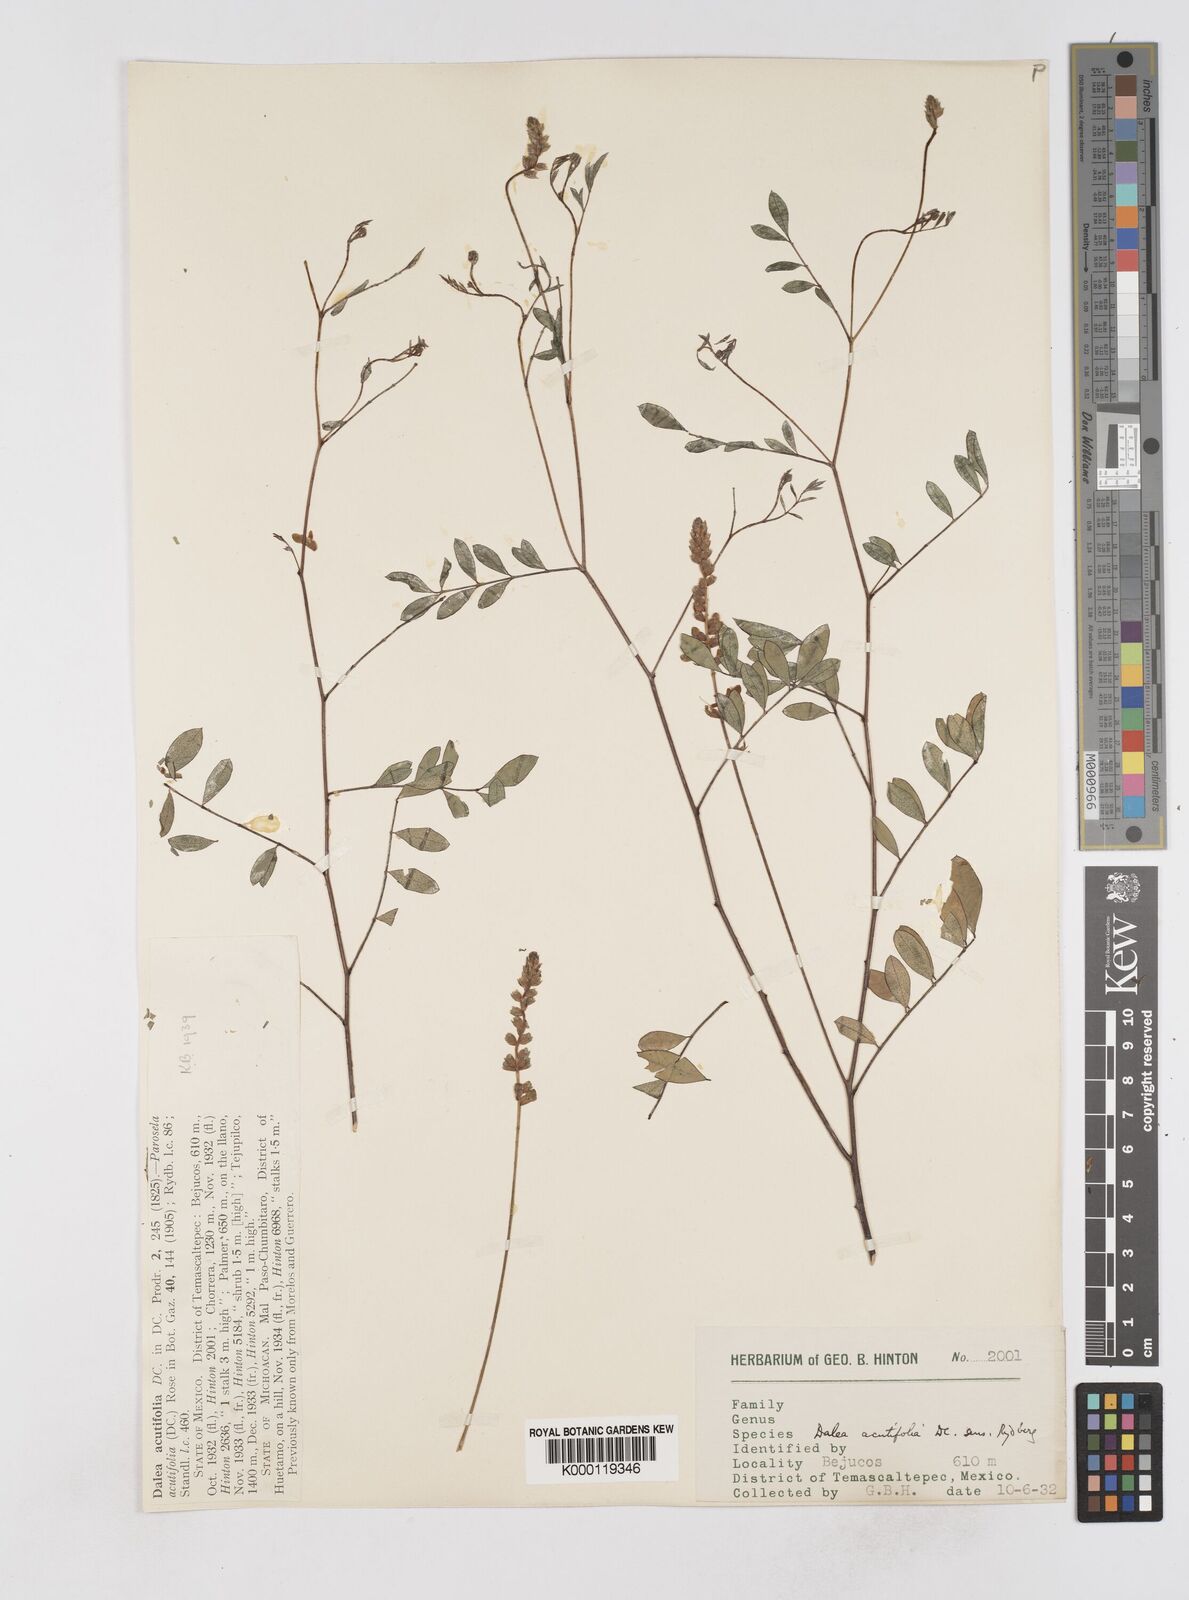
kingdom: Plantae
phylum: Tracheophyta
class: Magnoliopsida
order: Fabales
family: Fabaceae
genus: Dalea
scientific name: Dalea cliffortiana
